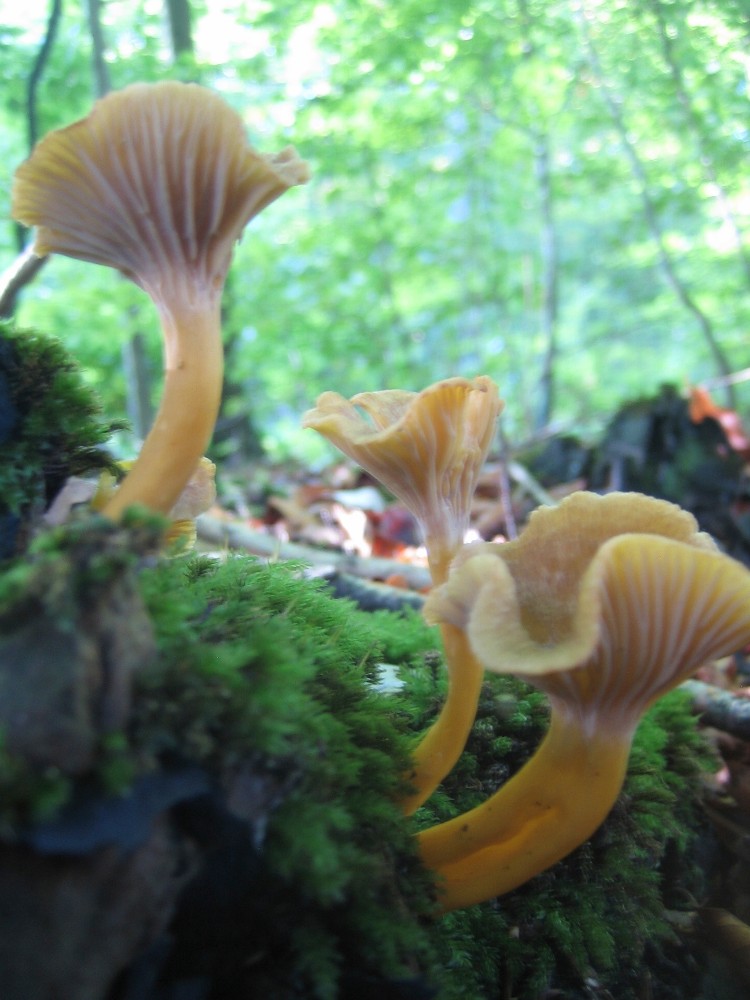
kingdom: Fungi
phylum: Basidiomycota
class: Agaricomycetes
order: Cantharellales
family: Hydnaceae
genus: Craterellus
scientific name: Craterellus tubaeformis
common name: tragt-kantarel
